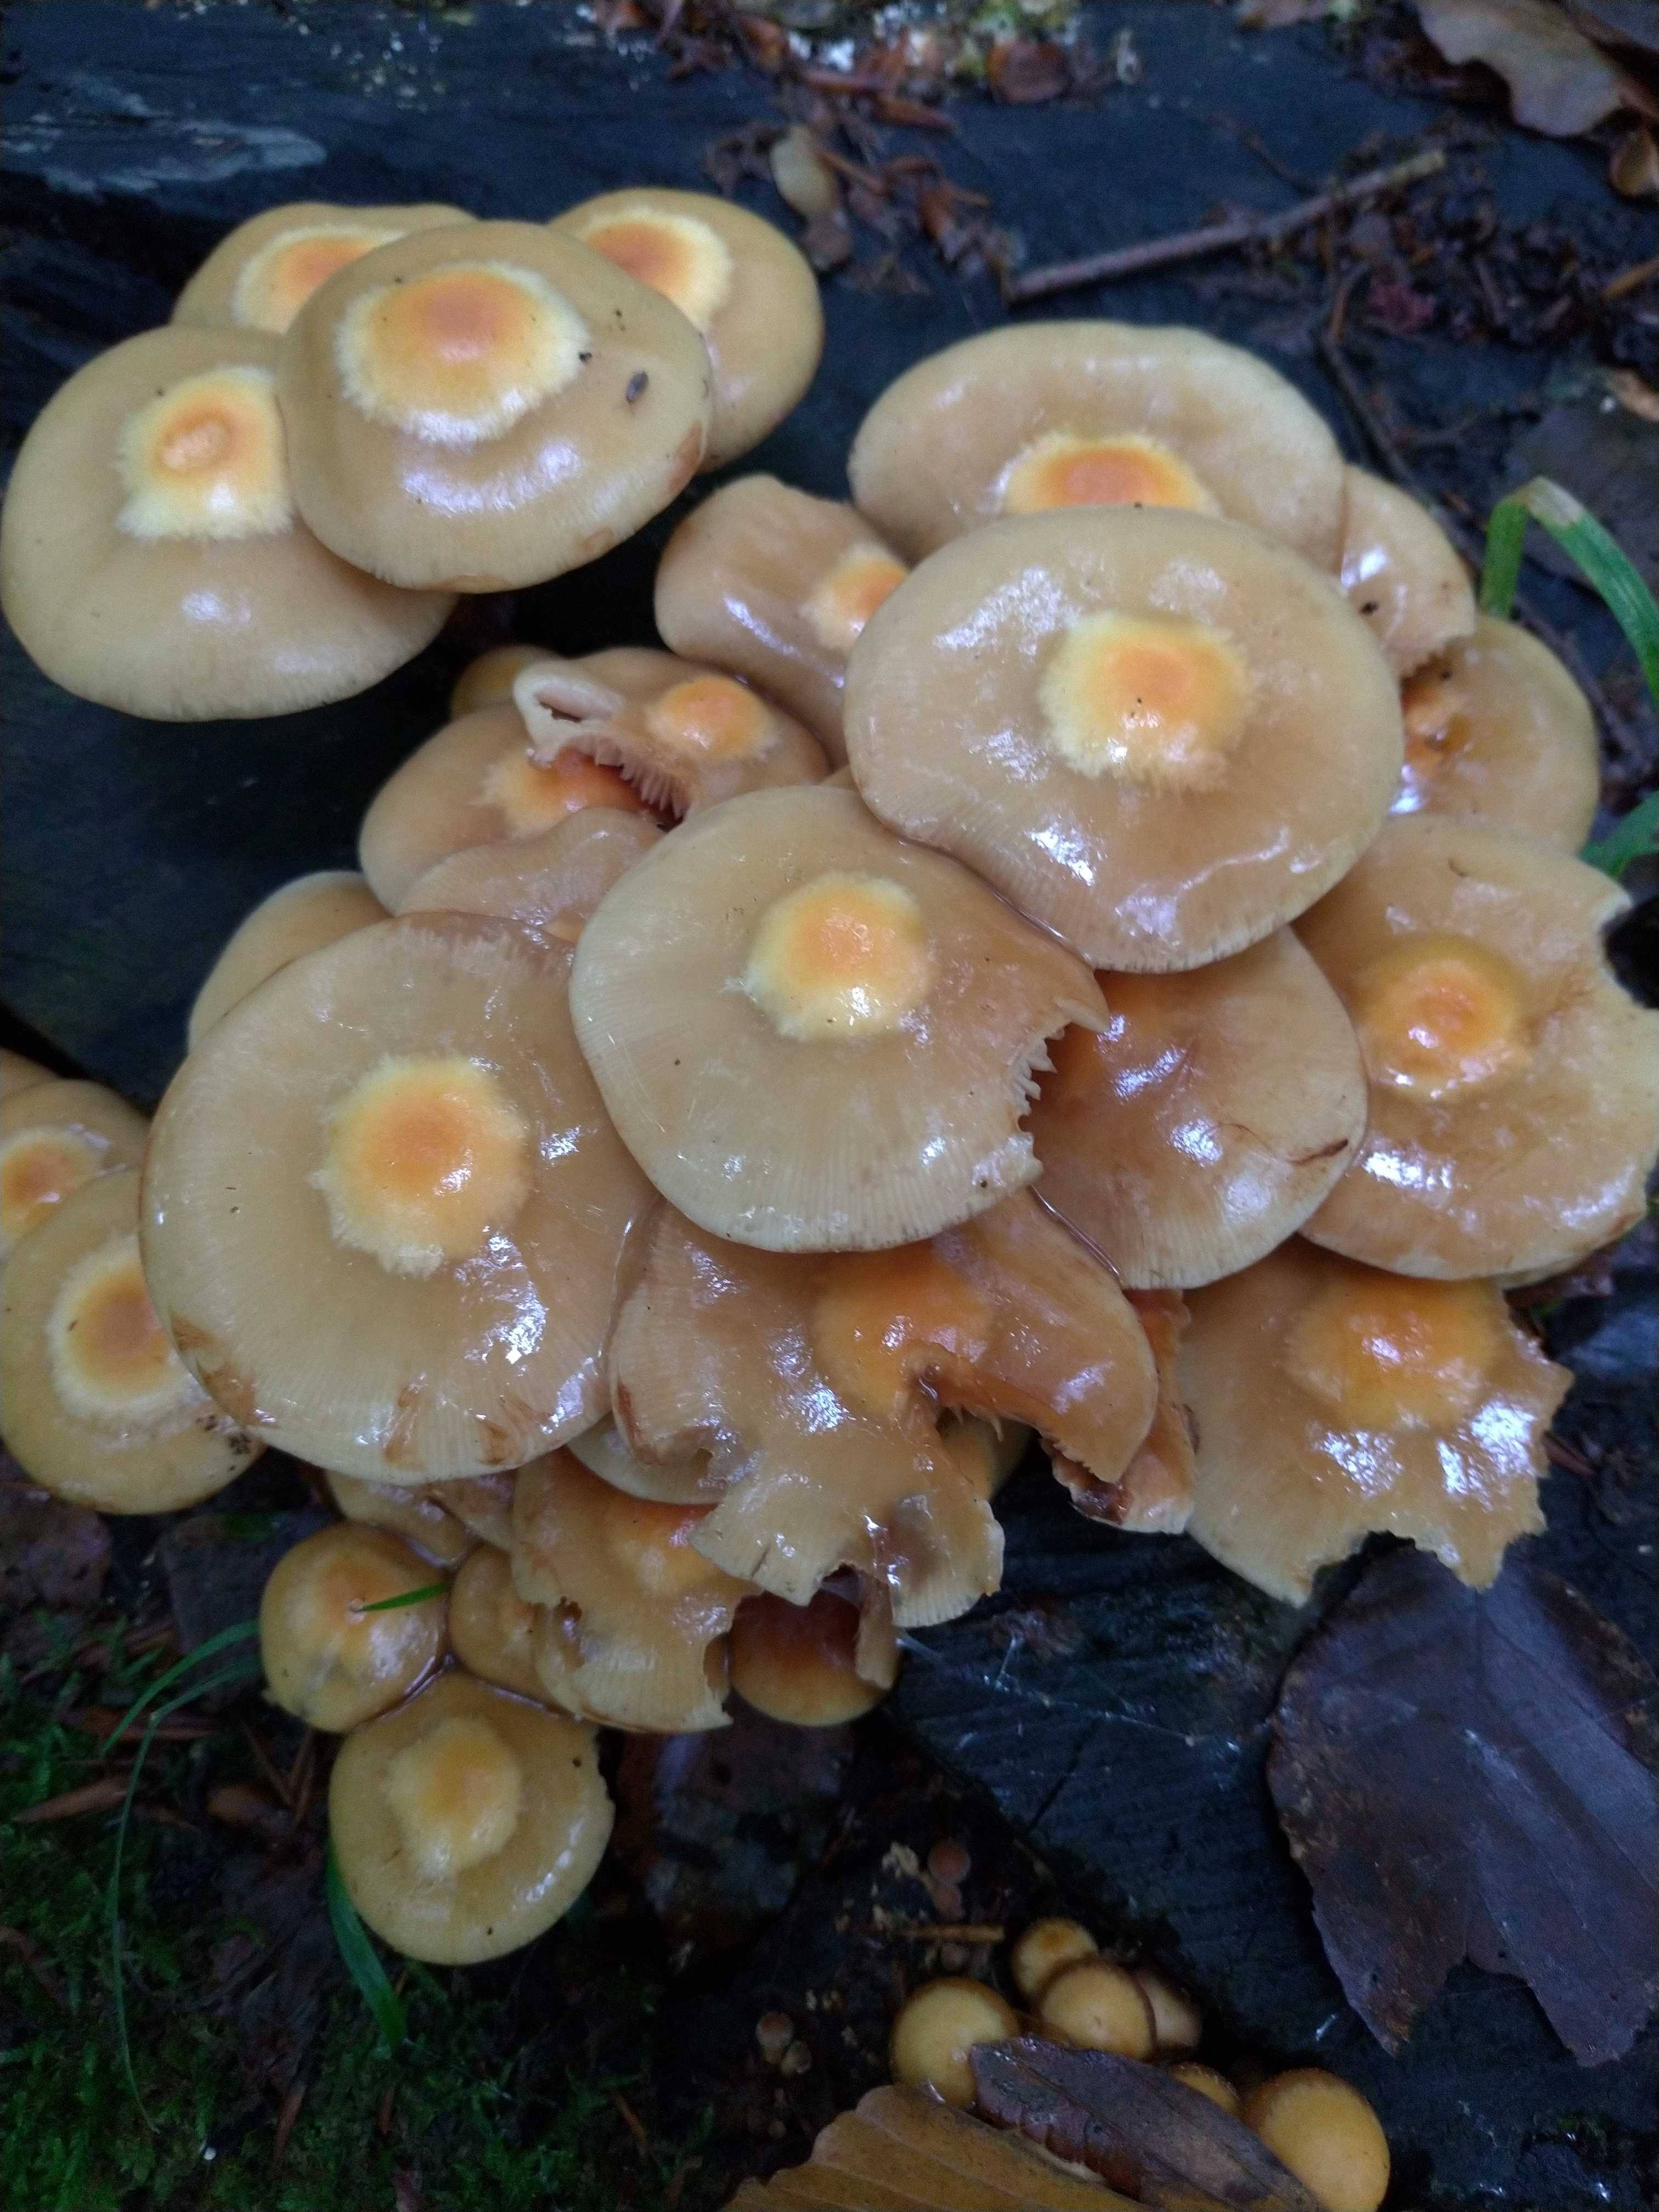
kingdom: Fungi
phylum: Basidiomycota
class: Agaricomycetes
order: Agaricales
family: Strophariaceae
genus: Kuehneromyces
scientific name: Kuehneromyces mutabilis
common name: foranderlig skælhat
